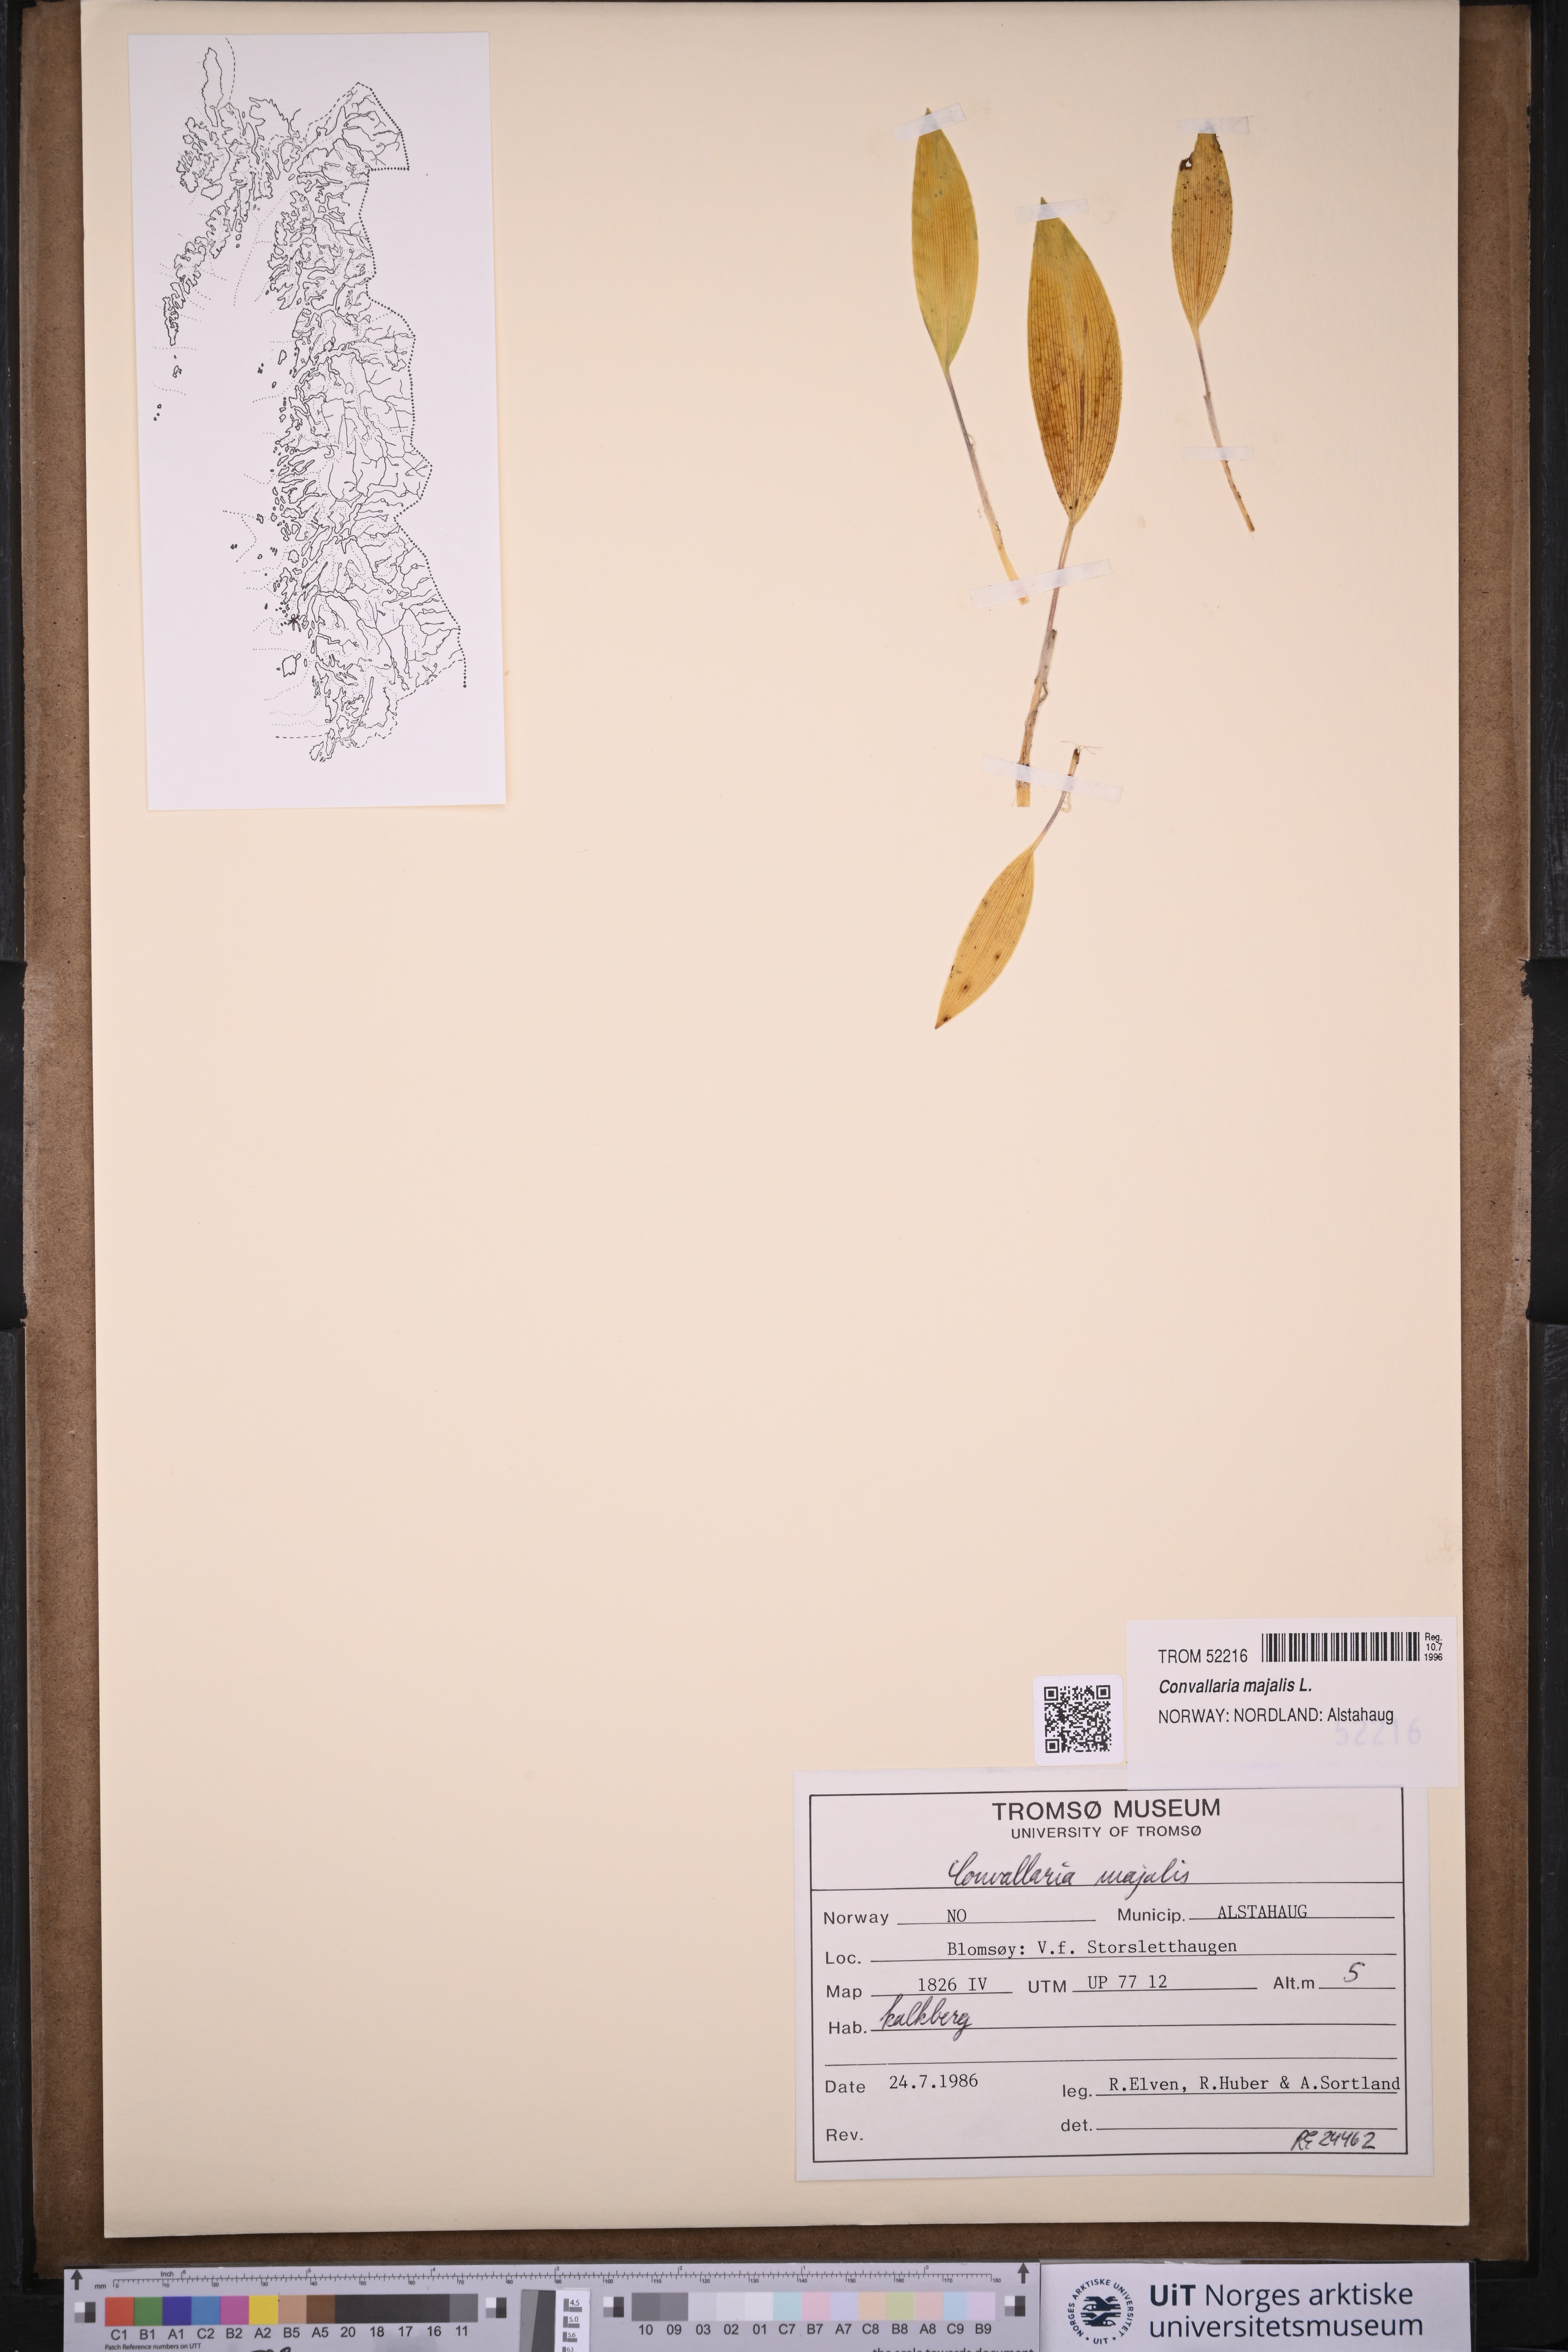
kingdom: Plantae
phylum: Tracheophyta
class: Liliopsida
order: Asparagales
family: Asparagaceae
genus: Convallaria
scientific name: Convallaria majalis
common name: Lily-of-the-valley
